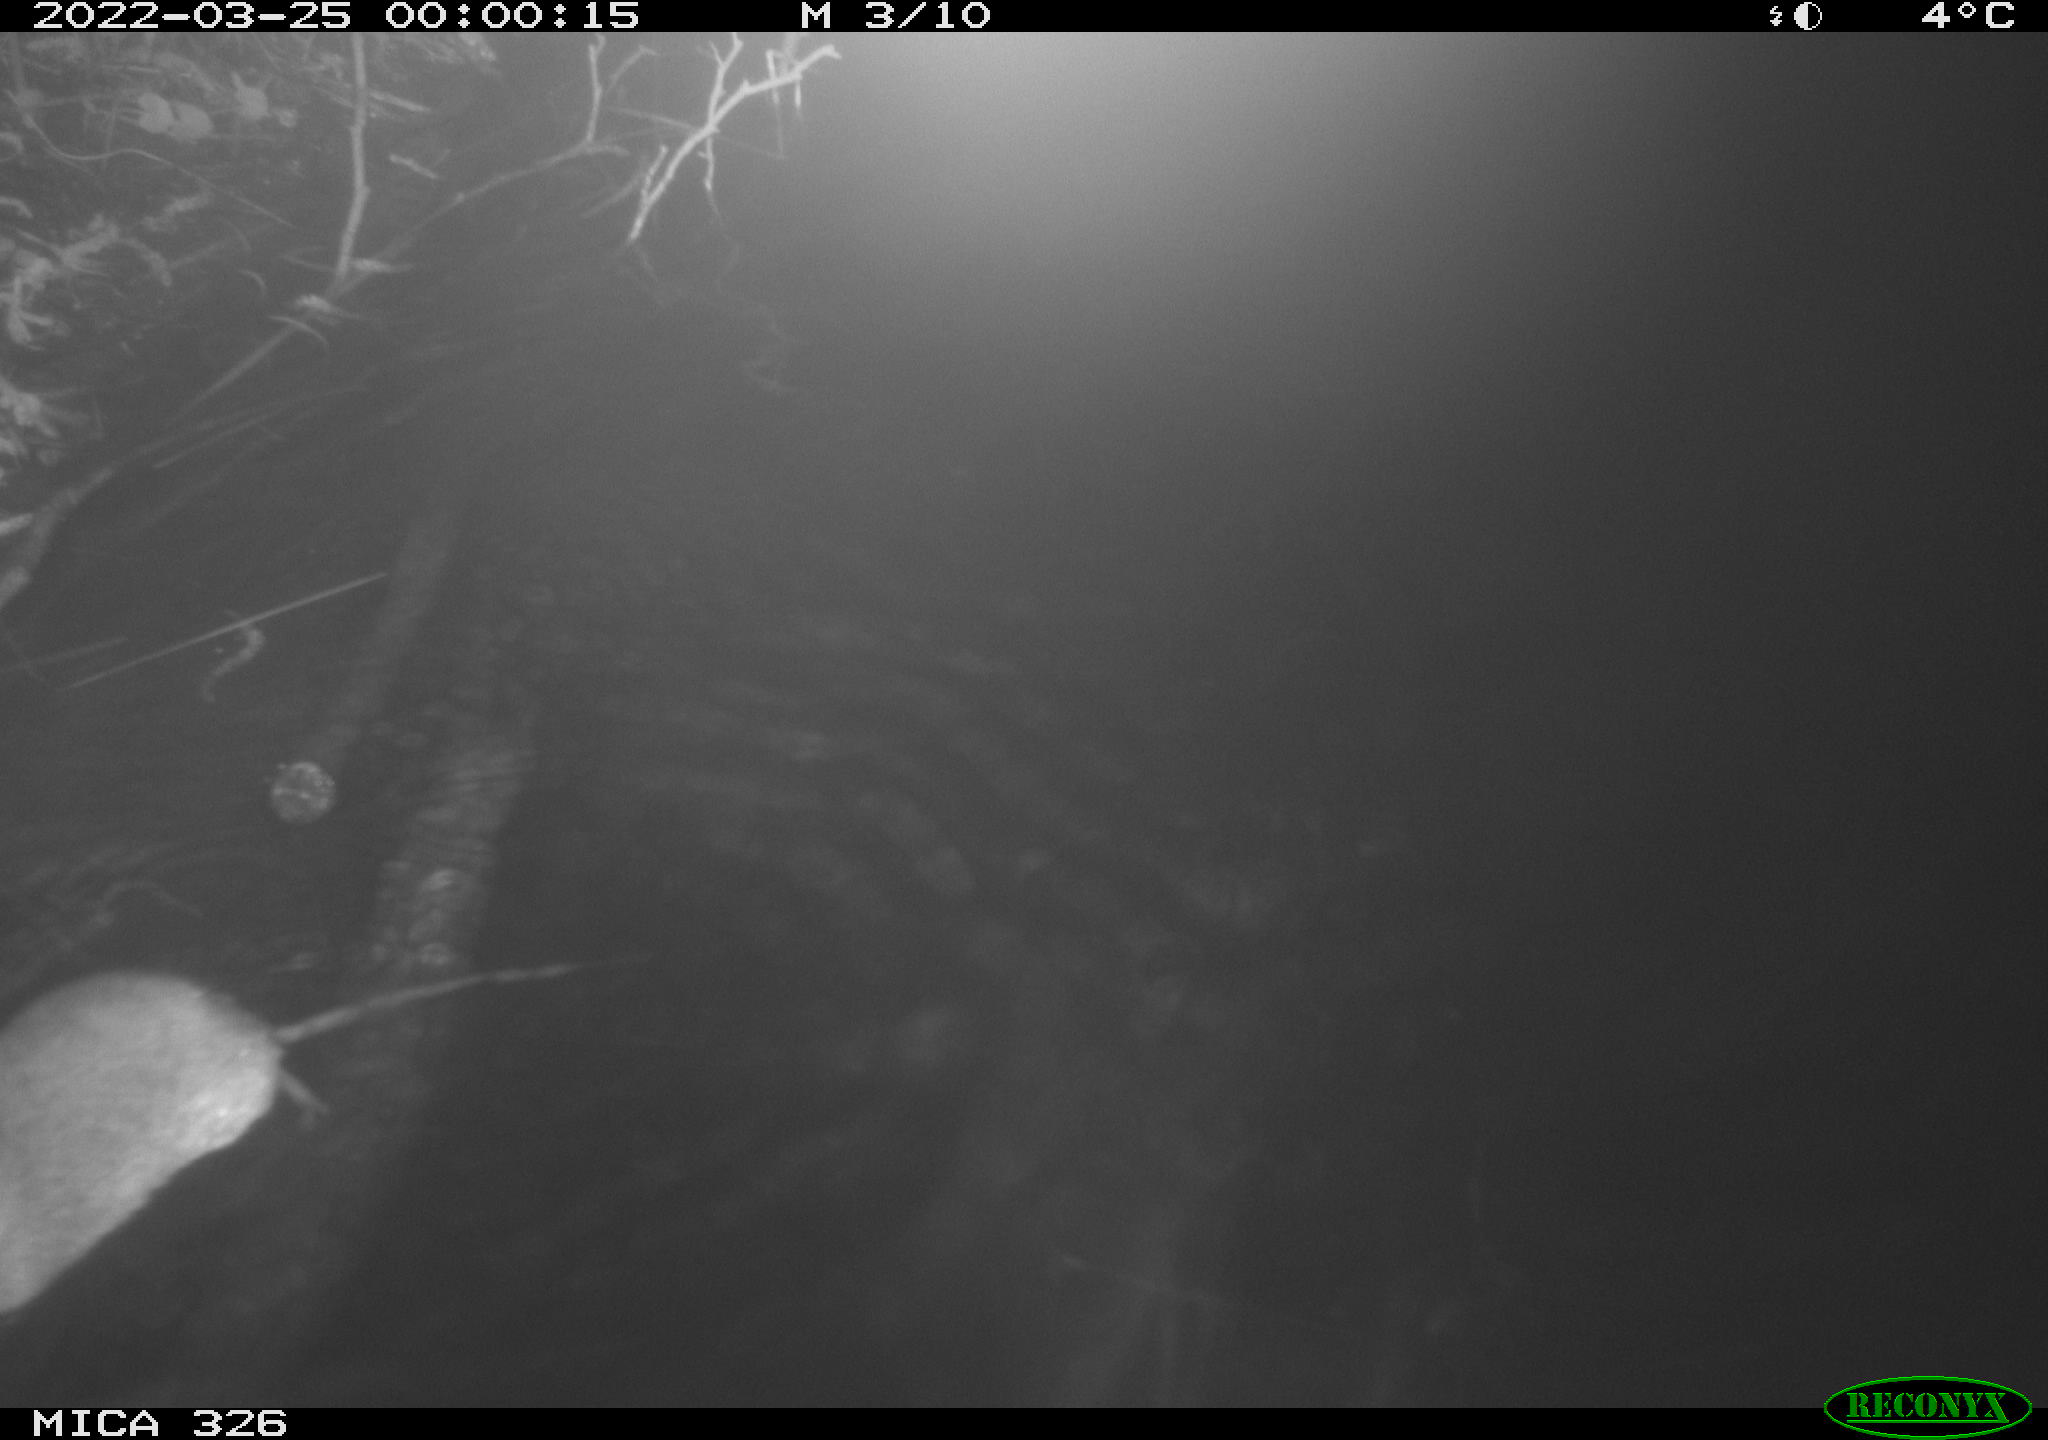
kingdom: Animalia
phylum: Chordata
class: Mammalia
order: Rodentia
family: Muridae
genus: Rattus
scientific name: Rattus norvegicus
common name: Brown rat
